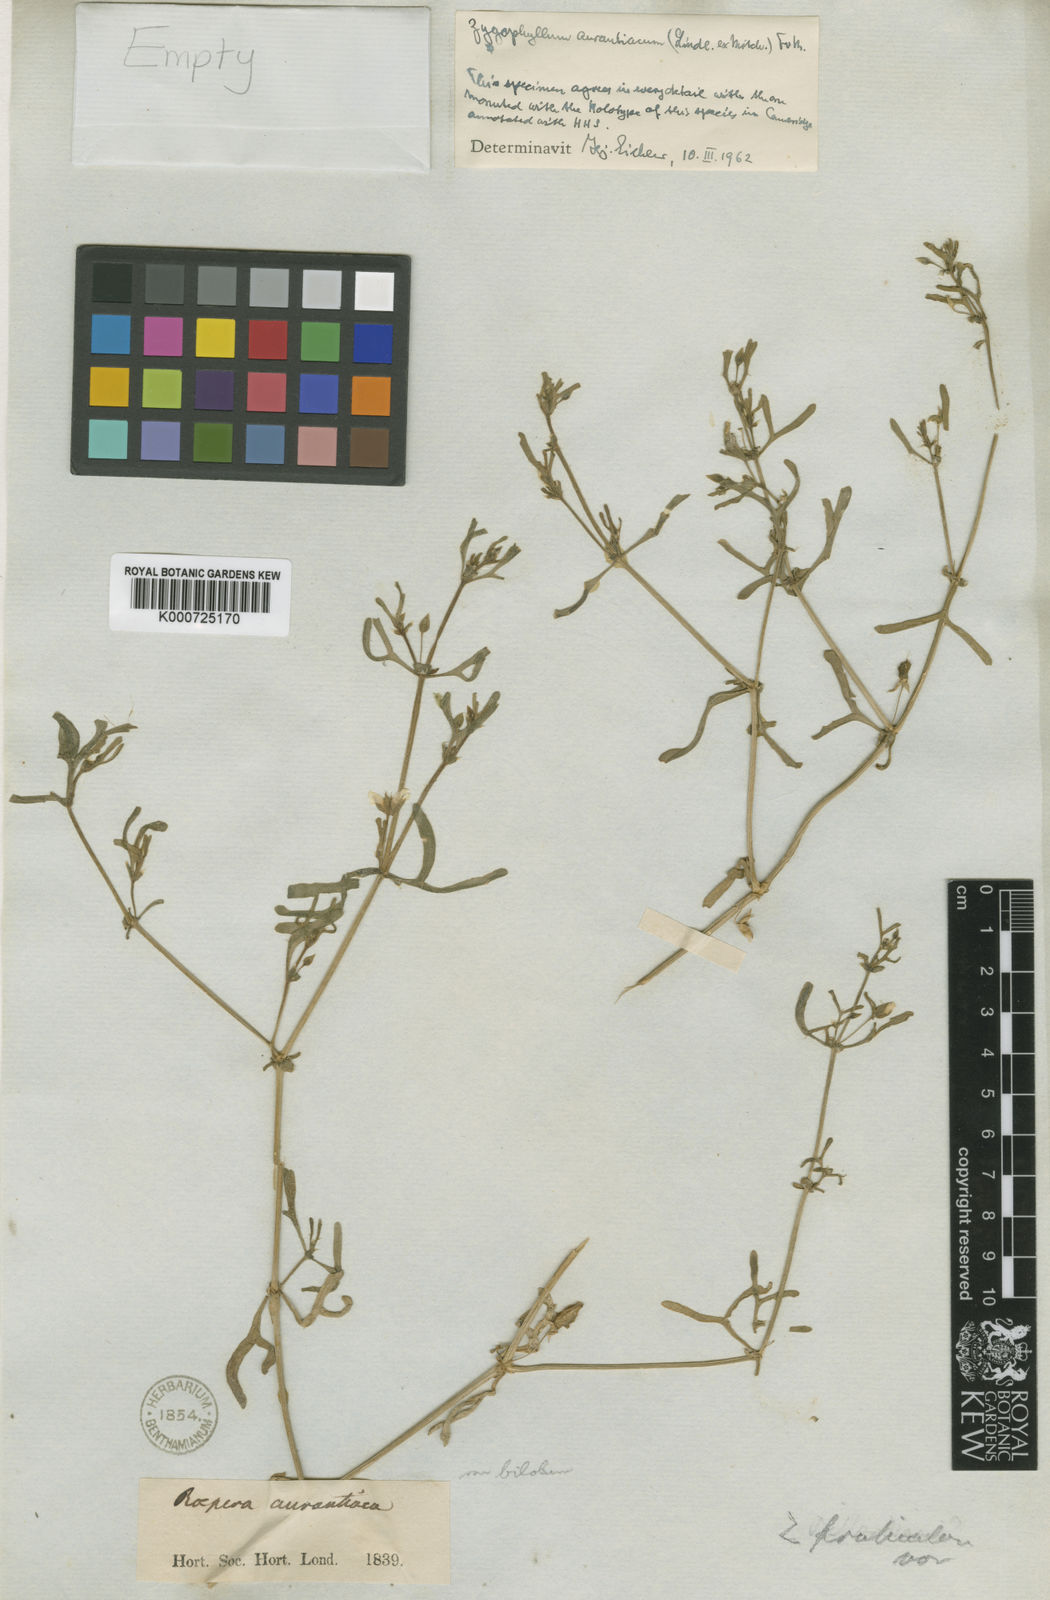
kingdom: Plantae
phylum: Tracheophyta
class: Magnoliopsida
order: Zygophyllales
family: Zygophyllaceae
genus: Roepera
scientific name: Roepera aurantiaca
